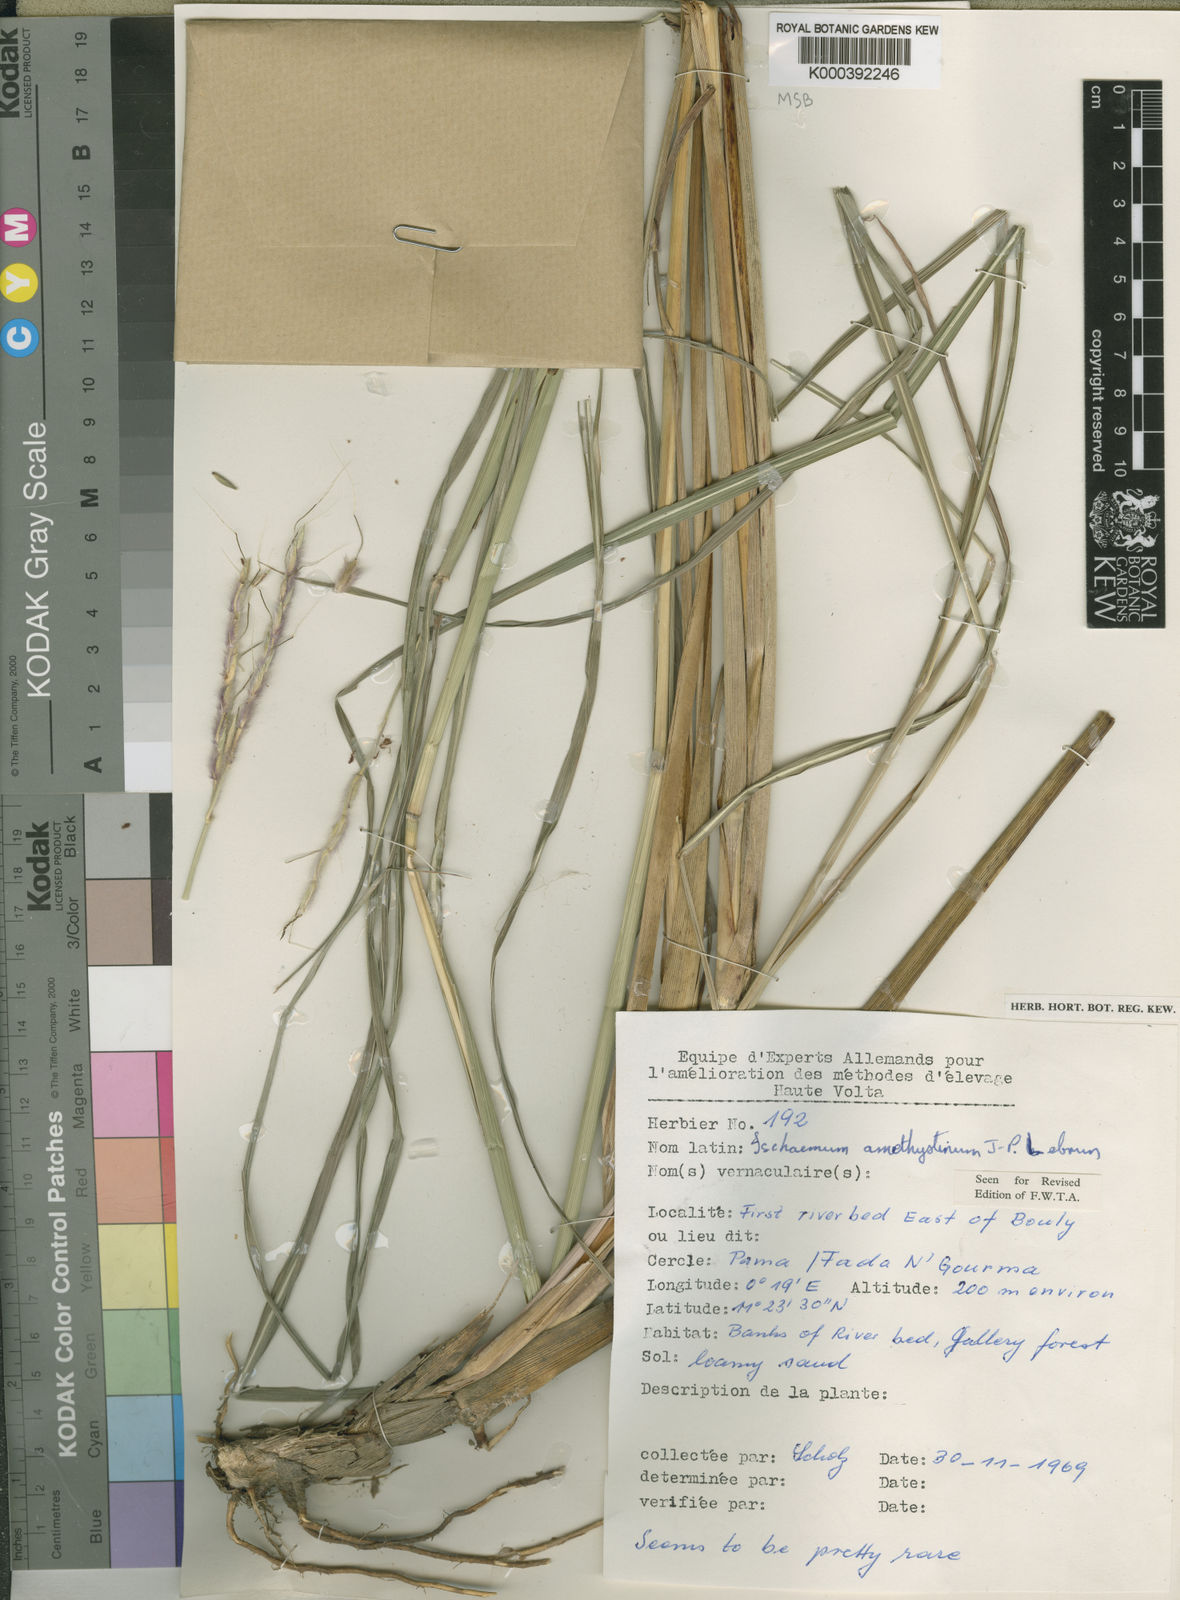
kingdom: Plantae
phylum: Tracheophyta
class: Liliopsida
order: Poales
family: Poaceae
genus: Ischaemum
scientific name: Ischaemum amethystinum
